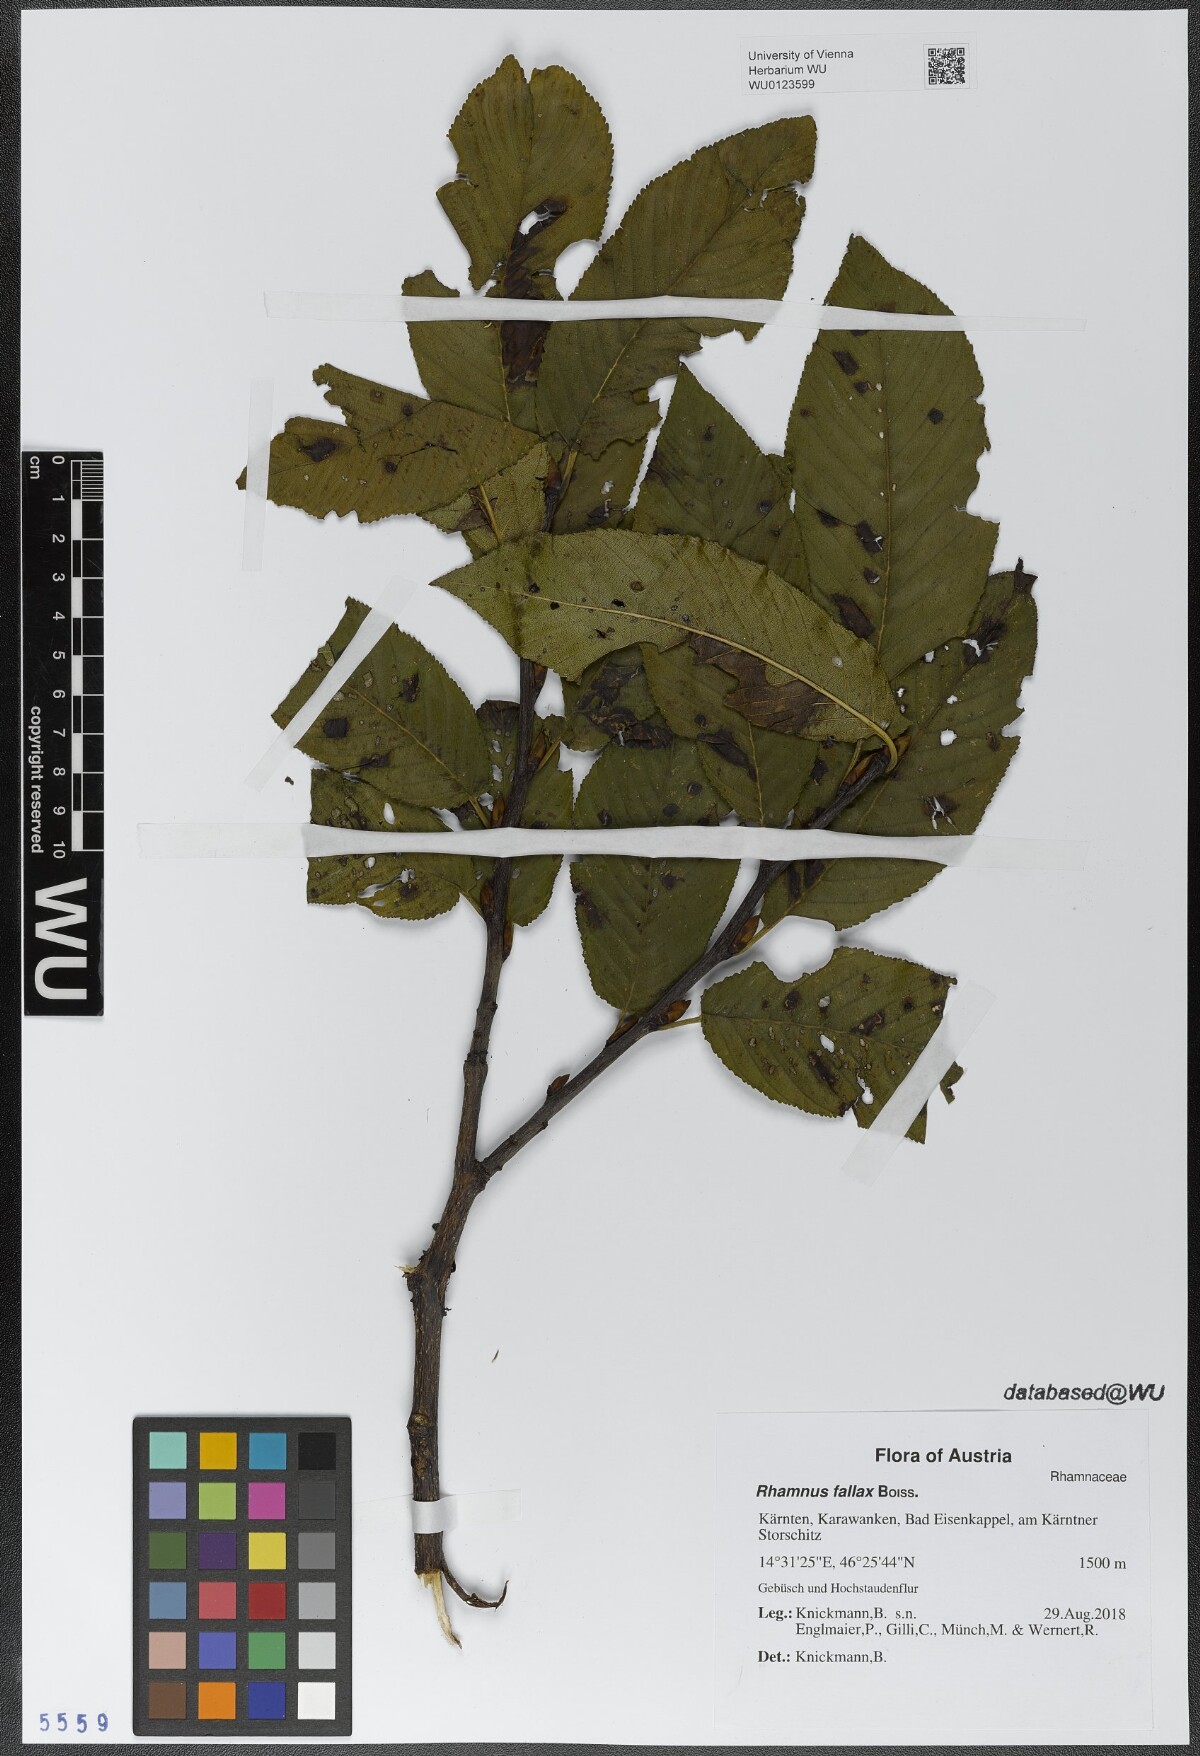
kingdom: Plantae
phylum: Tracheophyta
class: Magnoliopsida
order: Rosales
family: Rhamnaceae
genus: Atadinus
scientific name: Atadinus fallax
